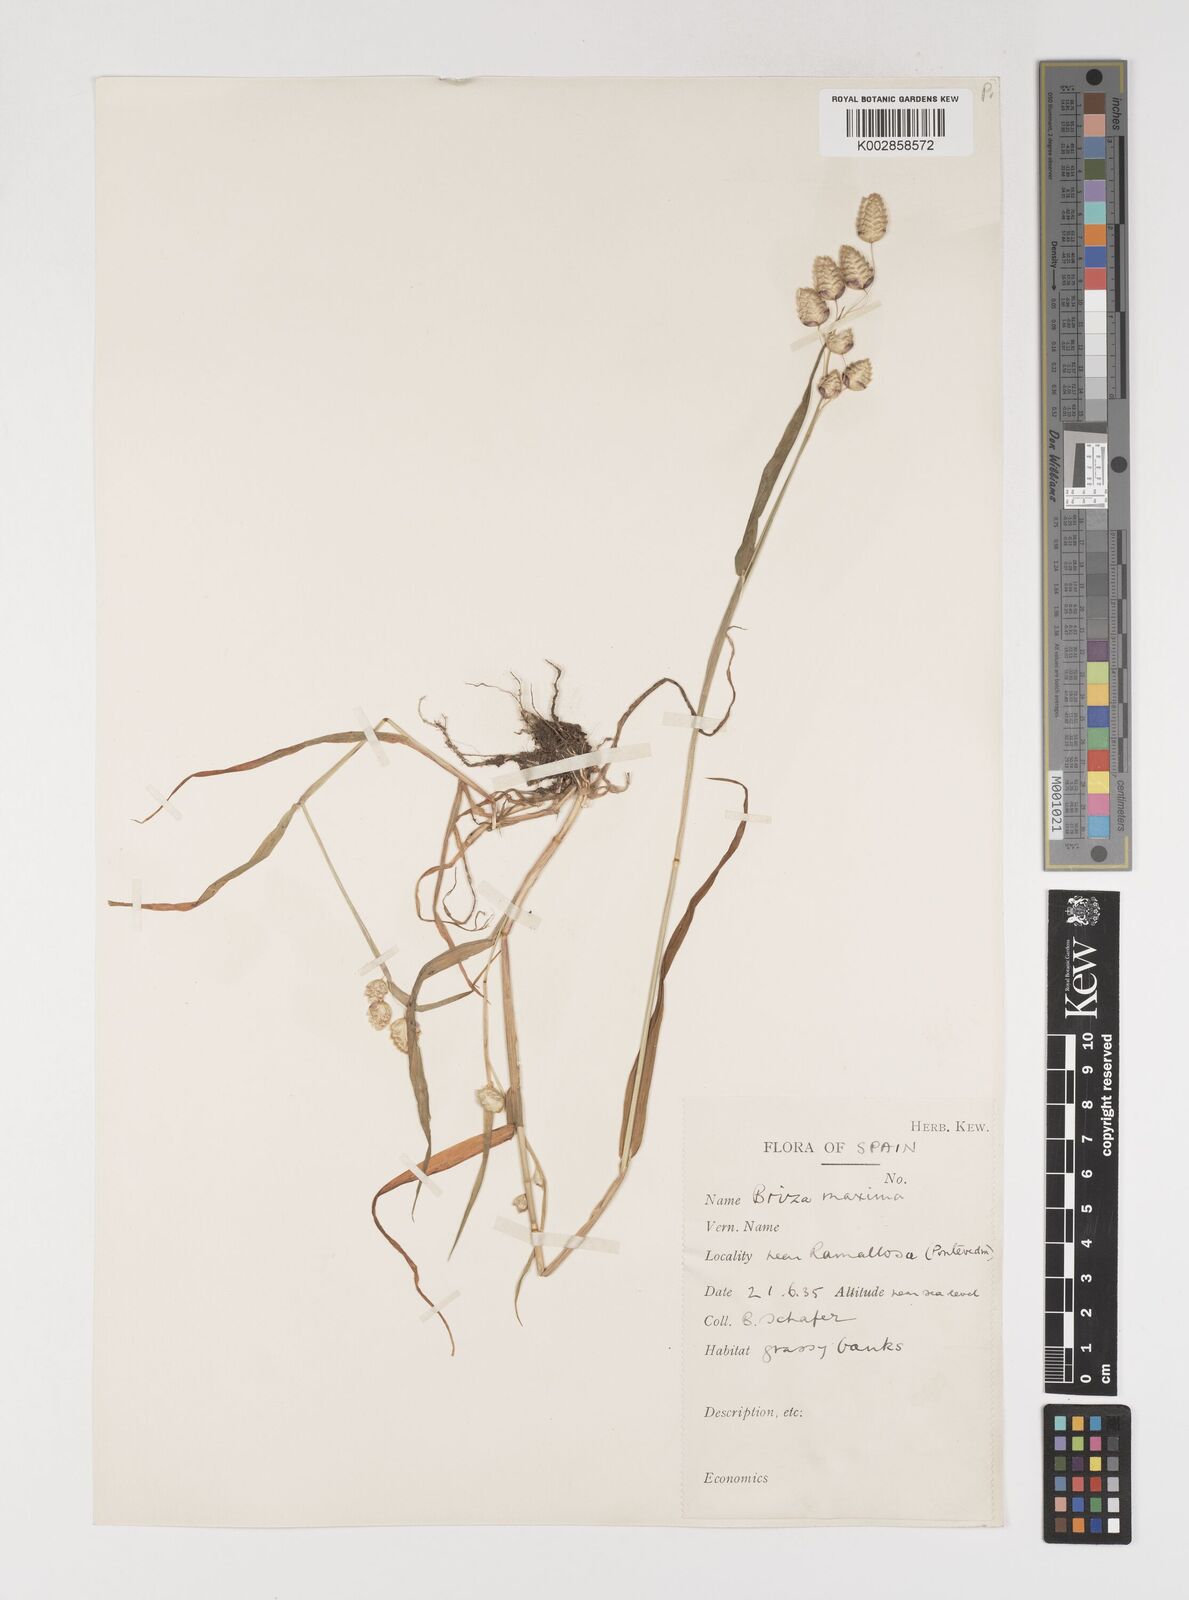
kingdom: Plantae
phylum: Tracheophyta
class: Liliopsida
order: Poales
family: Poaceae
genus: Briza
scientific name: Briza maxima
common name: Big quakinggrass
